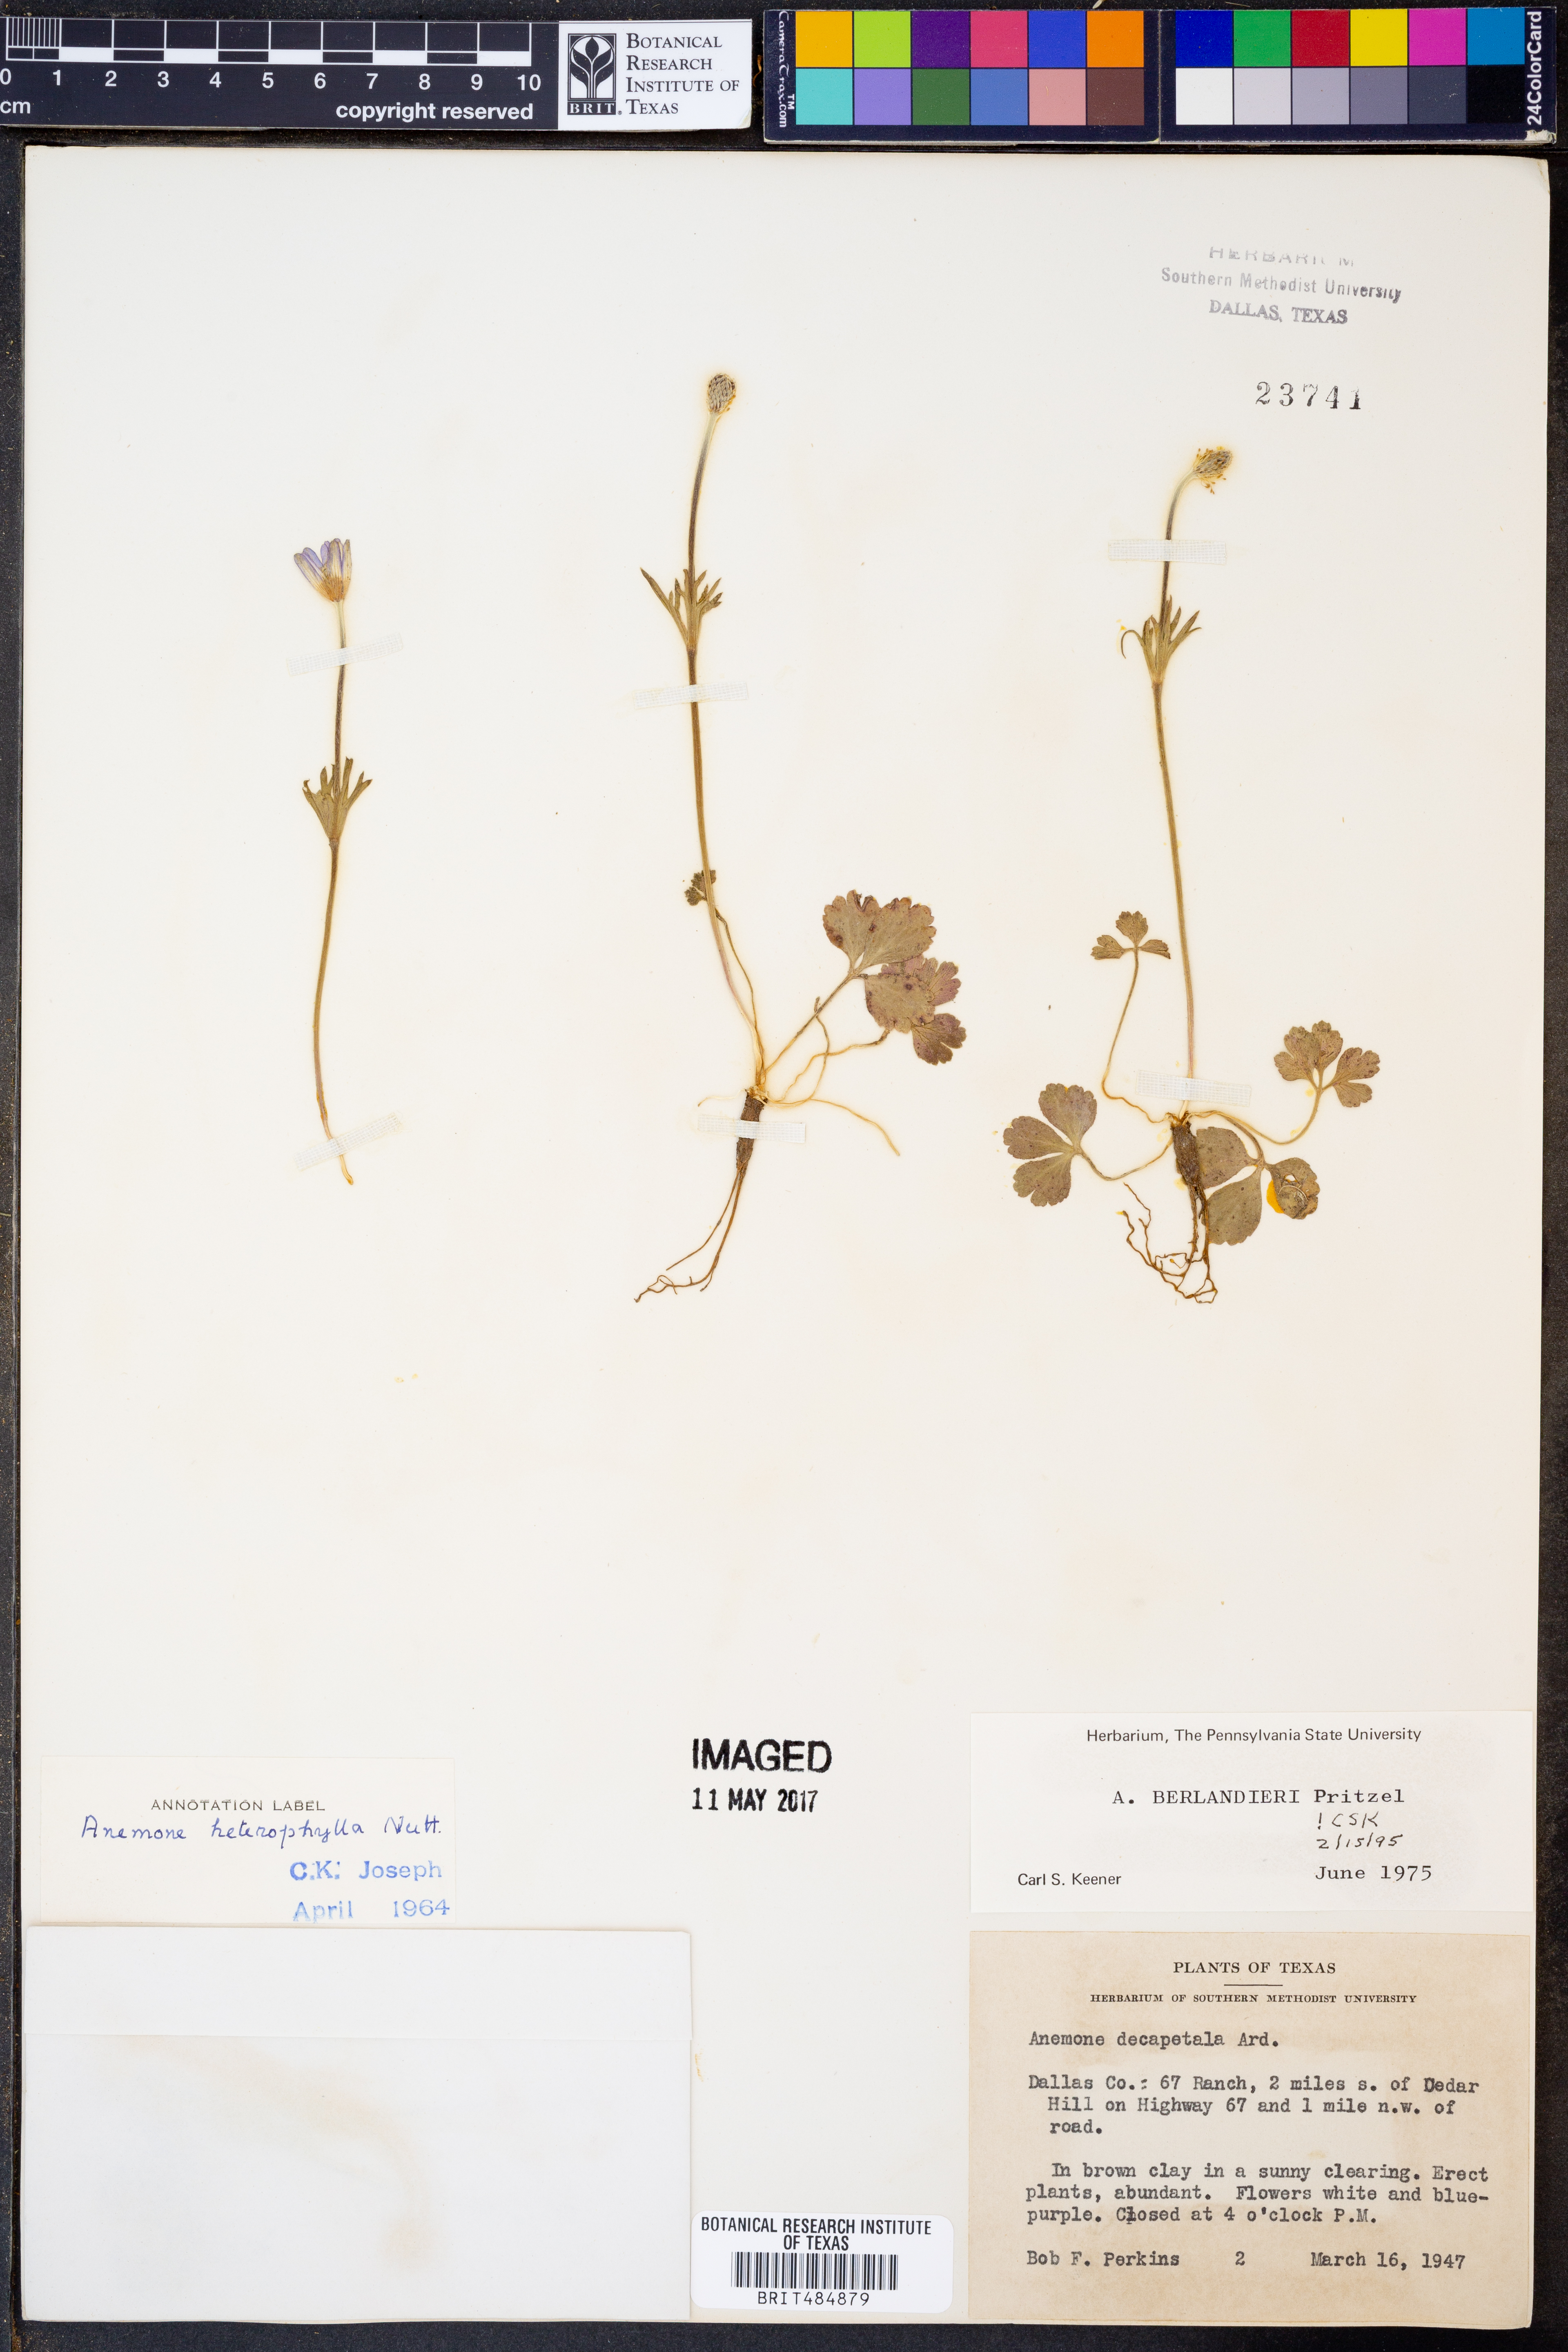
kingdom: Plantae
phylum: Tracheophyta
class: Magnoliopsida
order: Ranunculales
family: Ranunculaceae
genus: Anemone
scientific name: Anemone berlandieri
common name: Ten-petal anemone
